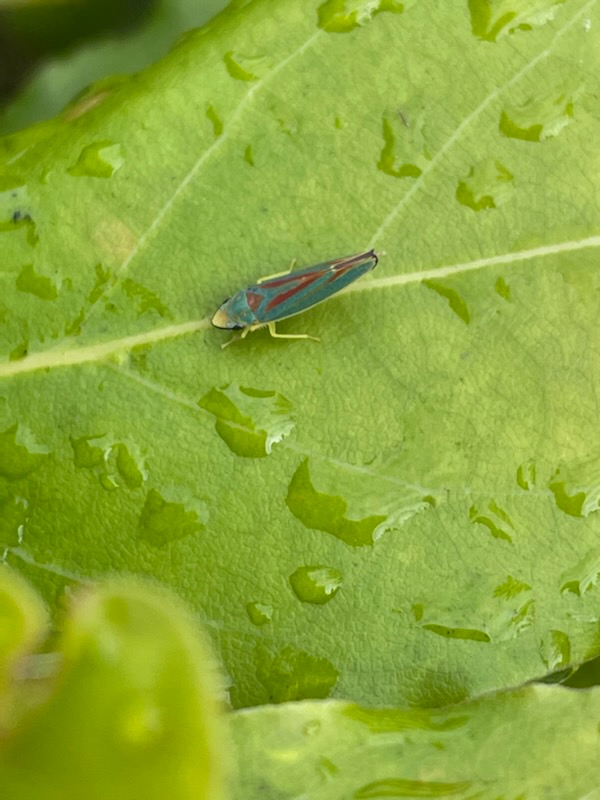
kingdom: Animalia
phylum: Arthropoda
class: Insecta
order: Hemiptera
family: Cicadellidae
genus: Graphocephala
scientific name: Graphocephala fennahi
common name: Rododendroncikade
